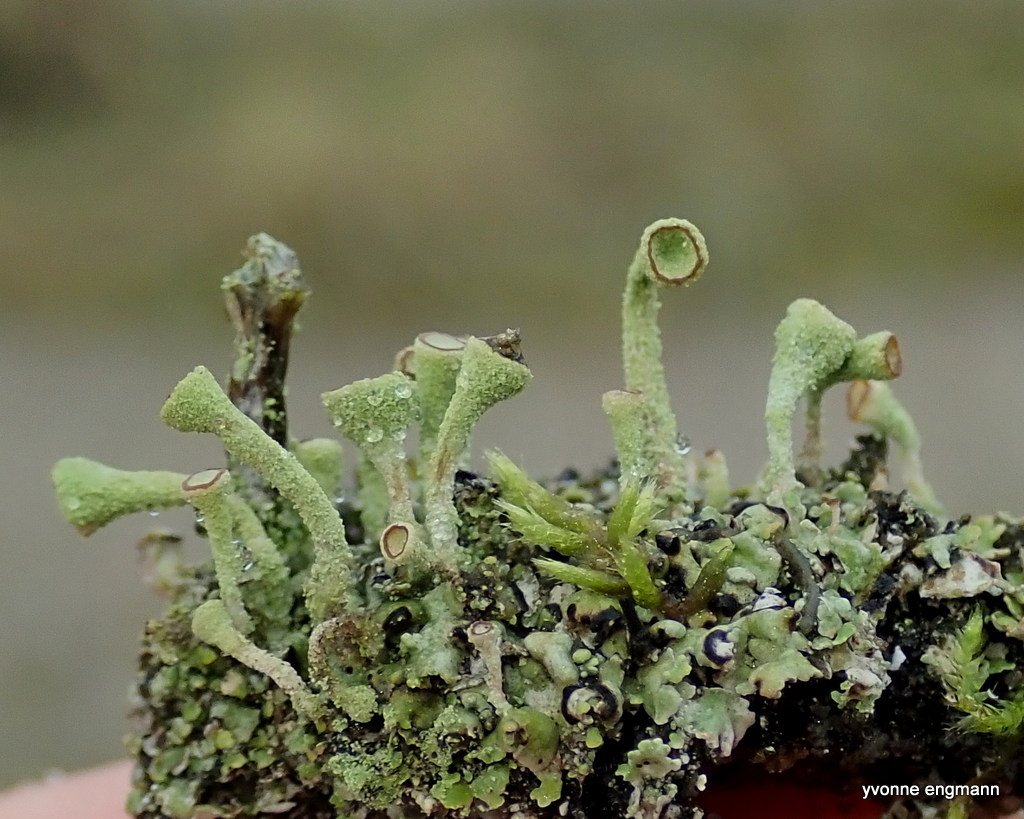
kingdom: Fungi
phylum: Ascomycota
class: Lecanoromycetes
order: Lecanorales
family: Cladoniaceae
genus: Cladonia
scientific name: Cladonia
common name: brungrøn bægerlav
